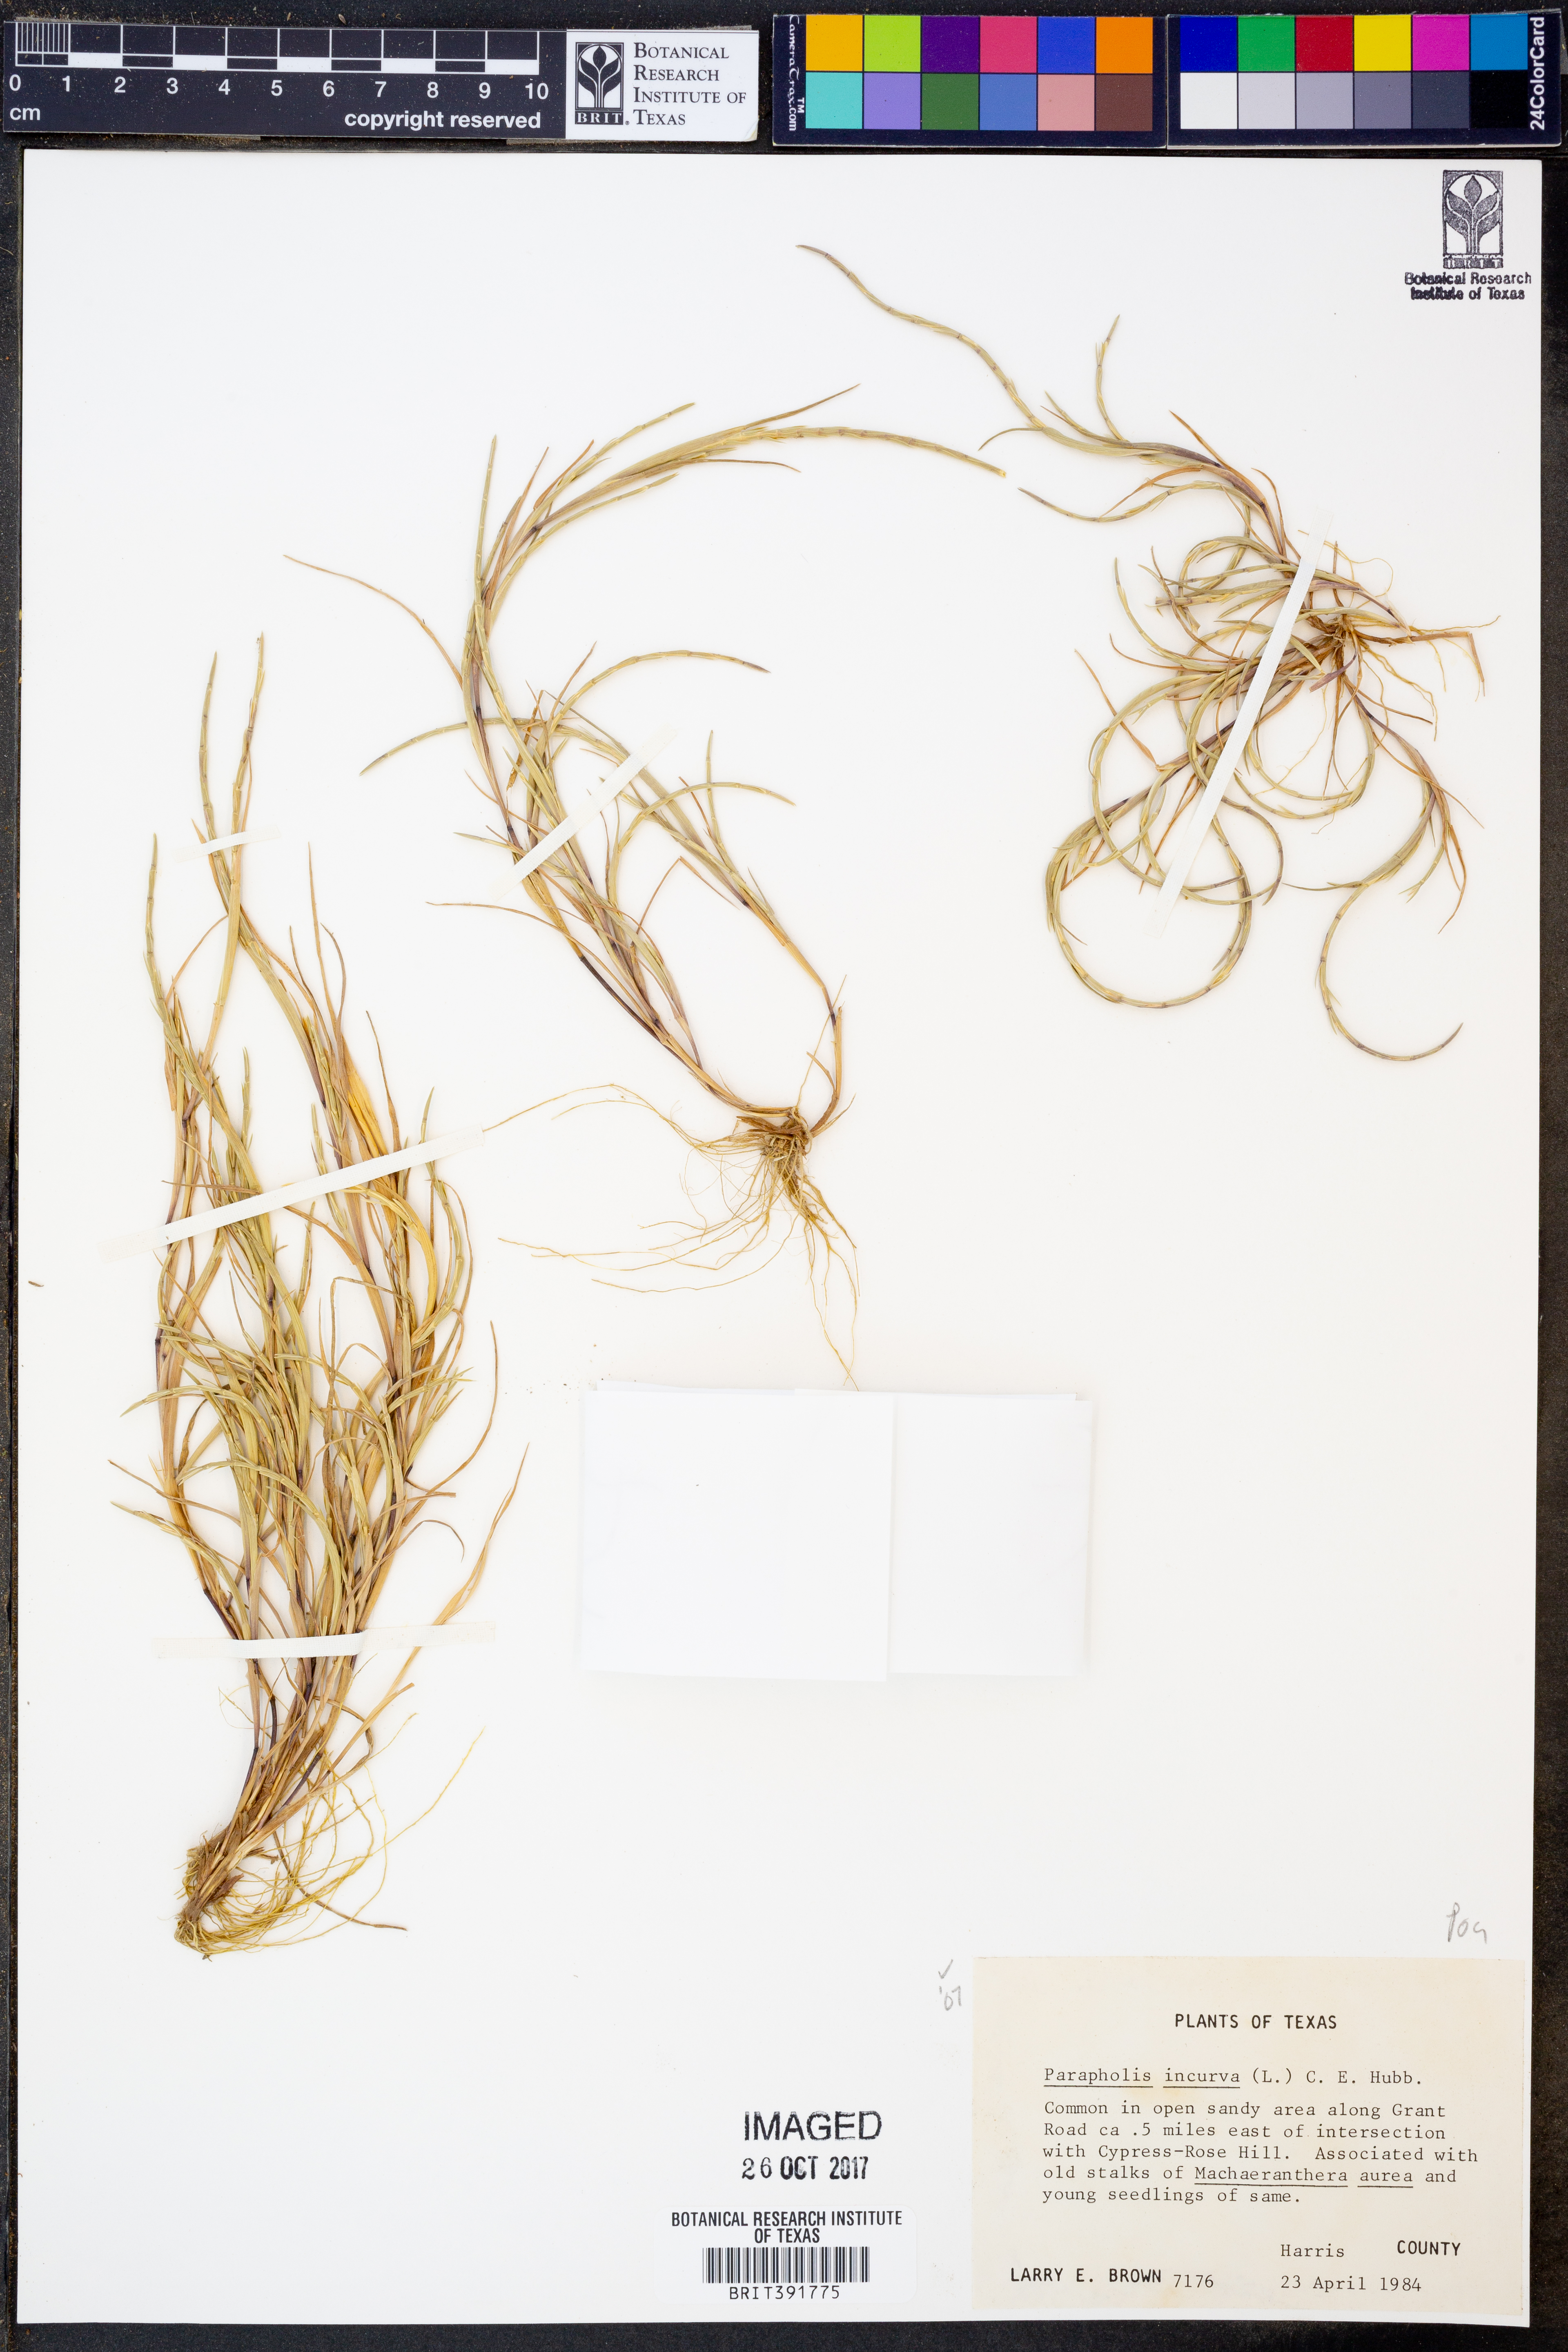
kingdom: Plantae
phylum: Tracheophyta
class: Liliopsida
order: Poales
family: Poaceae
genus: Parapholis
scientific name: Parapholis incurva
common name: Curved sicklegrass
